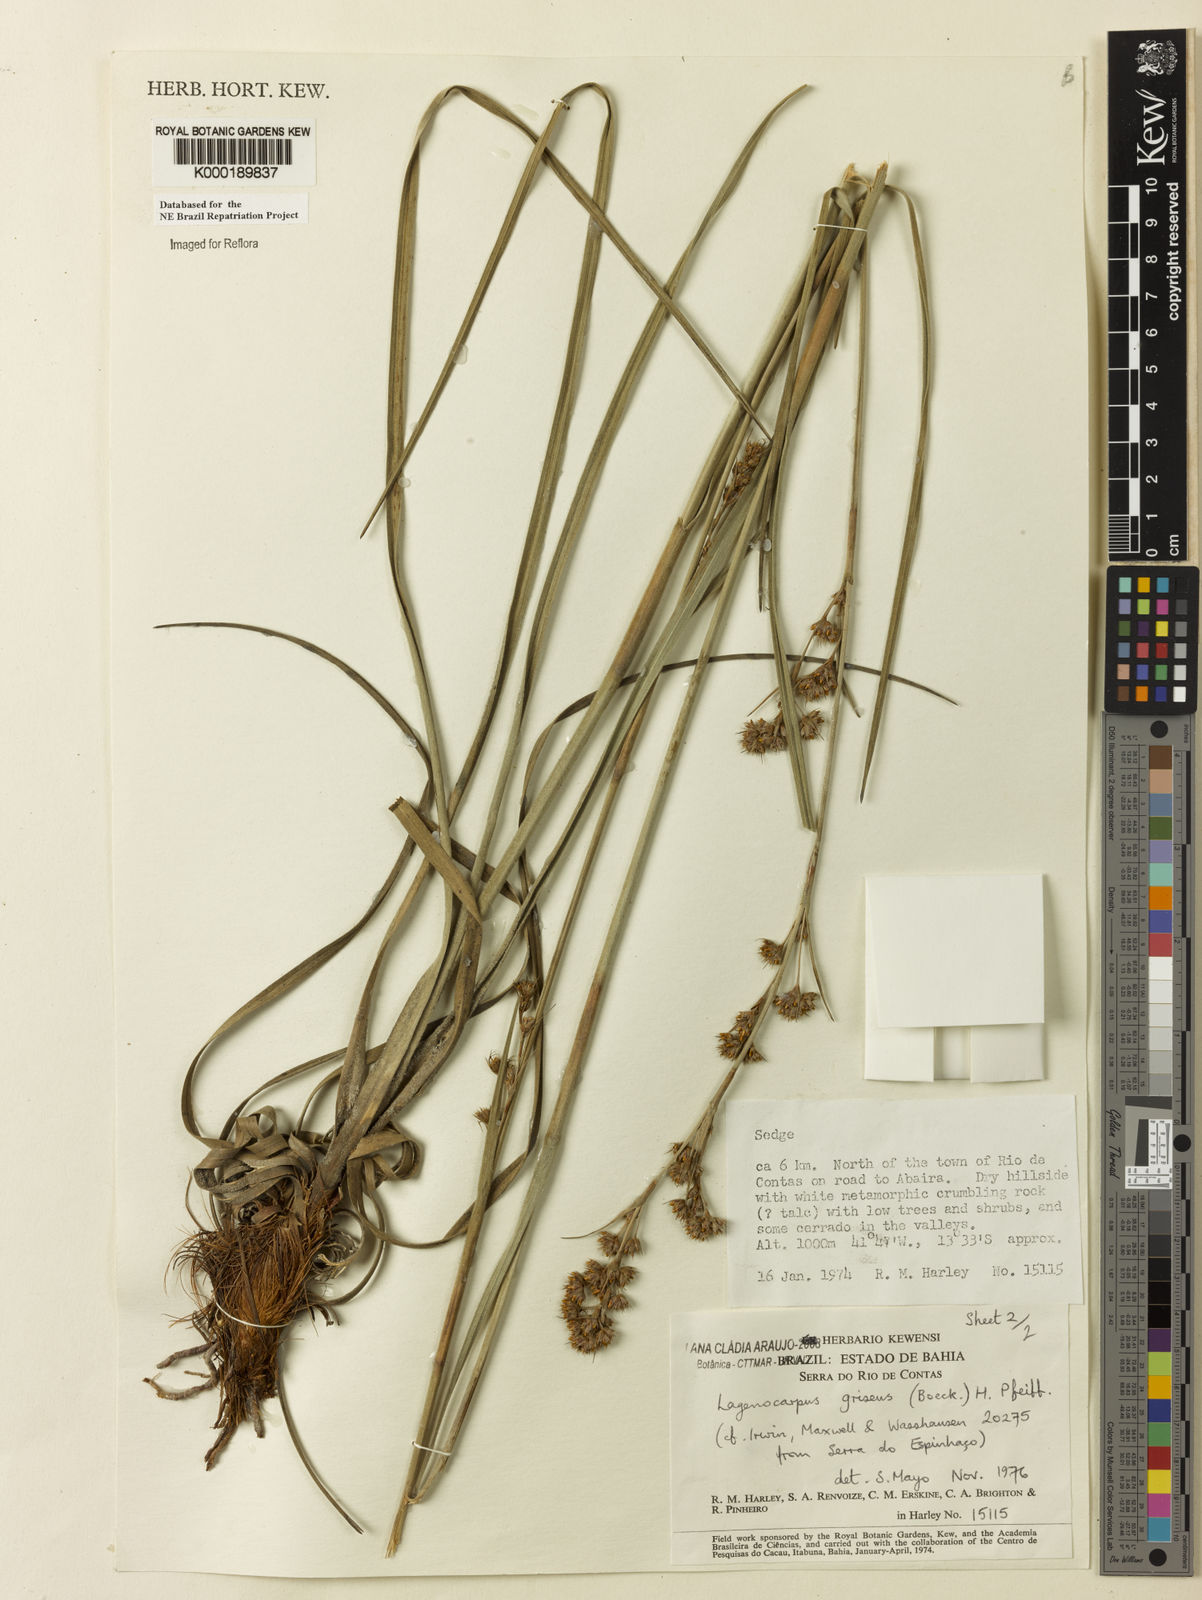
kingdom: Plantae
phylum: Tracheophyta
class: Liliopsida
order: Poales
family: Cyperaceae
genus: Lagenocarpus
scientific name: Lagenocarpus griseus
